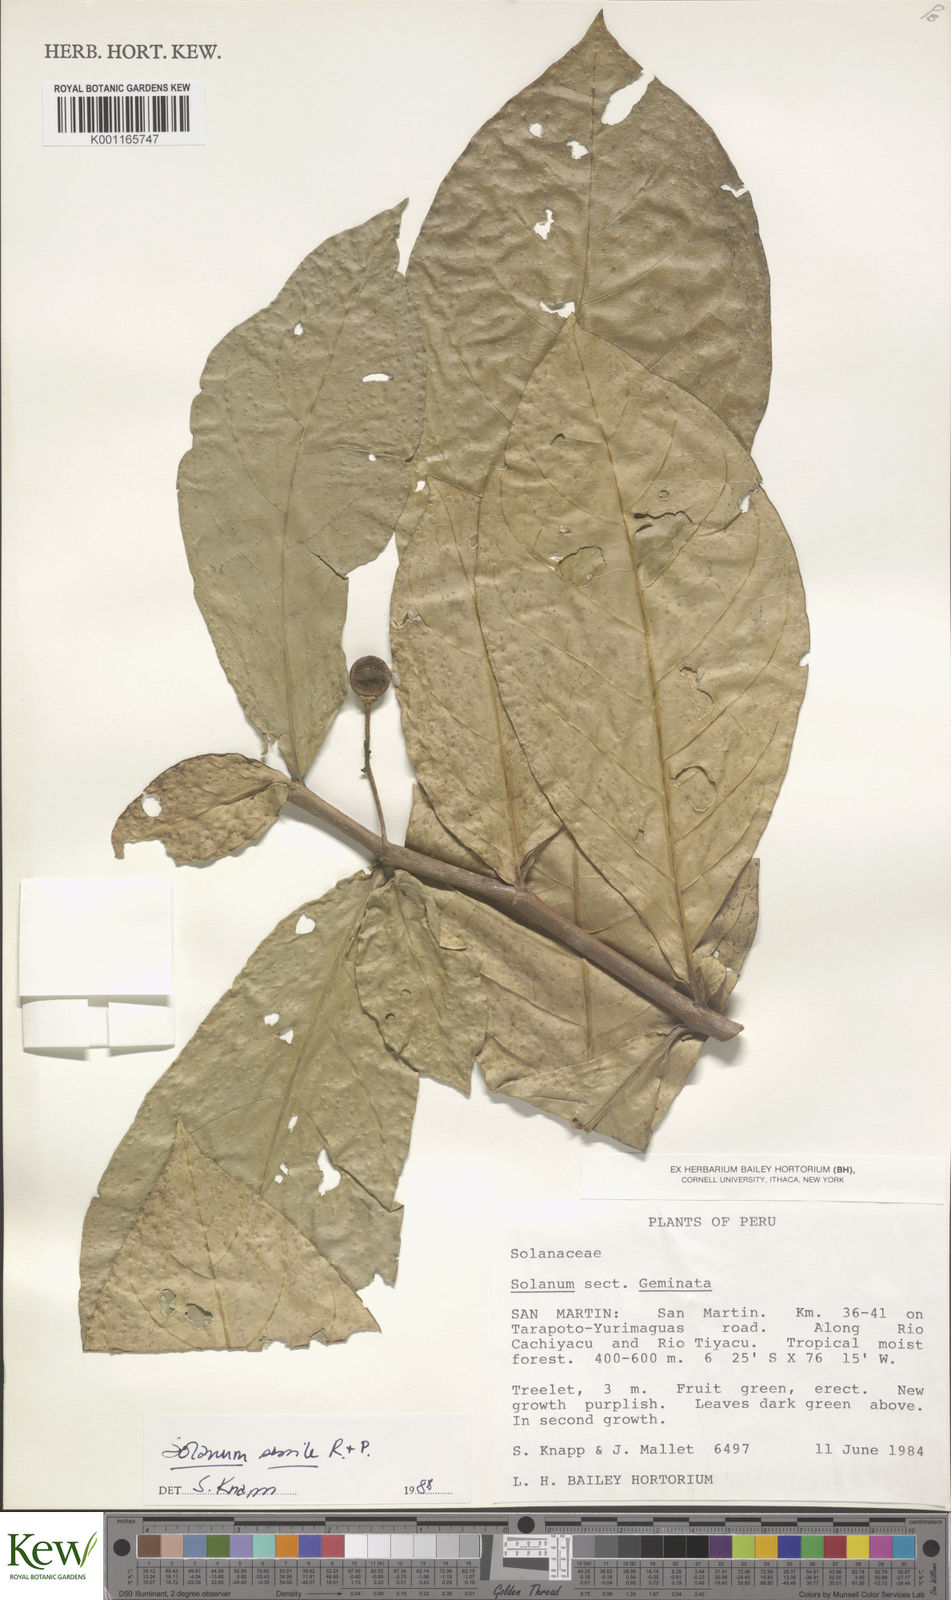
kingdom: Plantae
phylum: Tracheophyta
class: Magnoliopsida
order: Solanales
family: Solanaceae
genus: Solanum
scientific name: Solanum sessile
